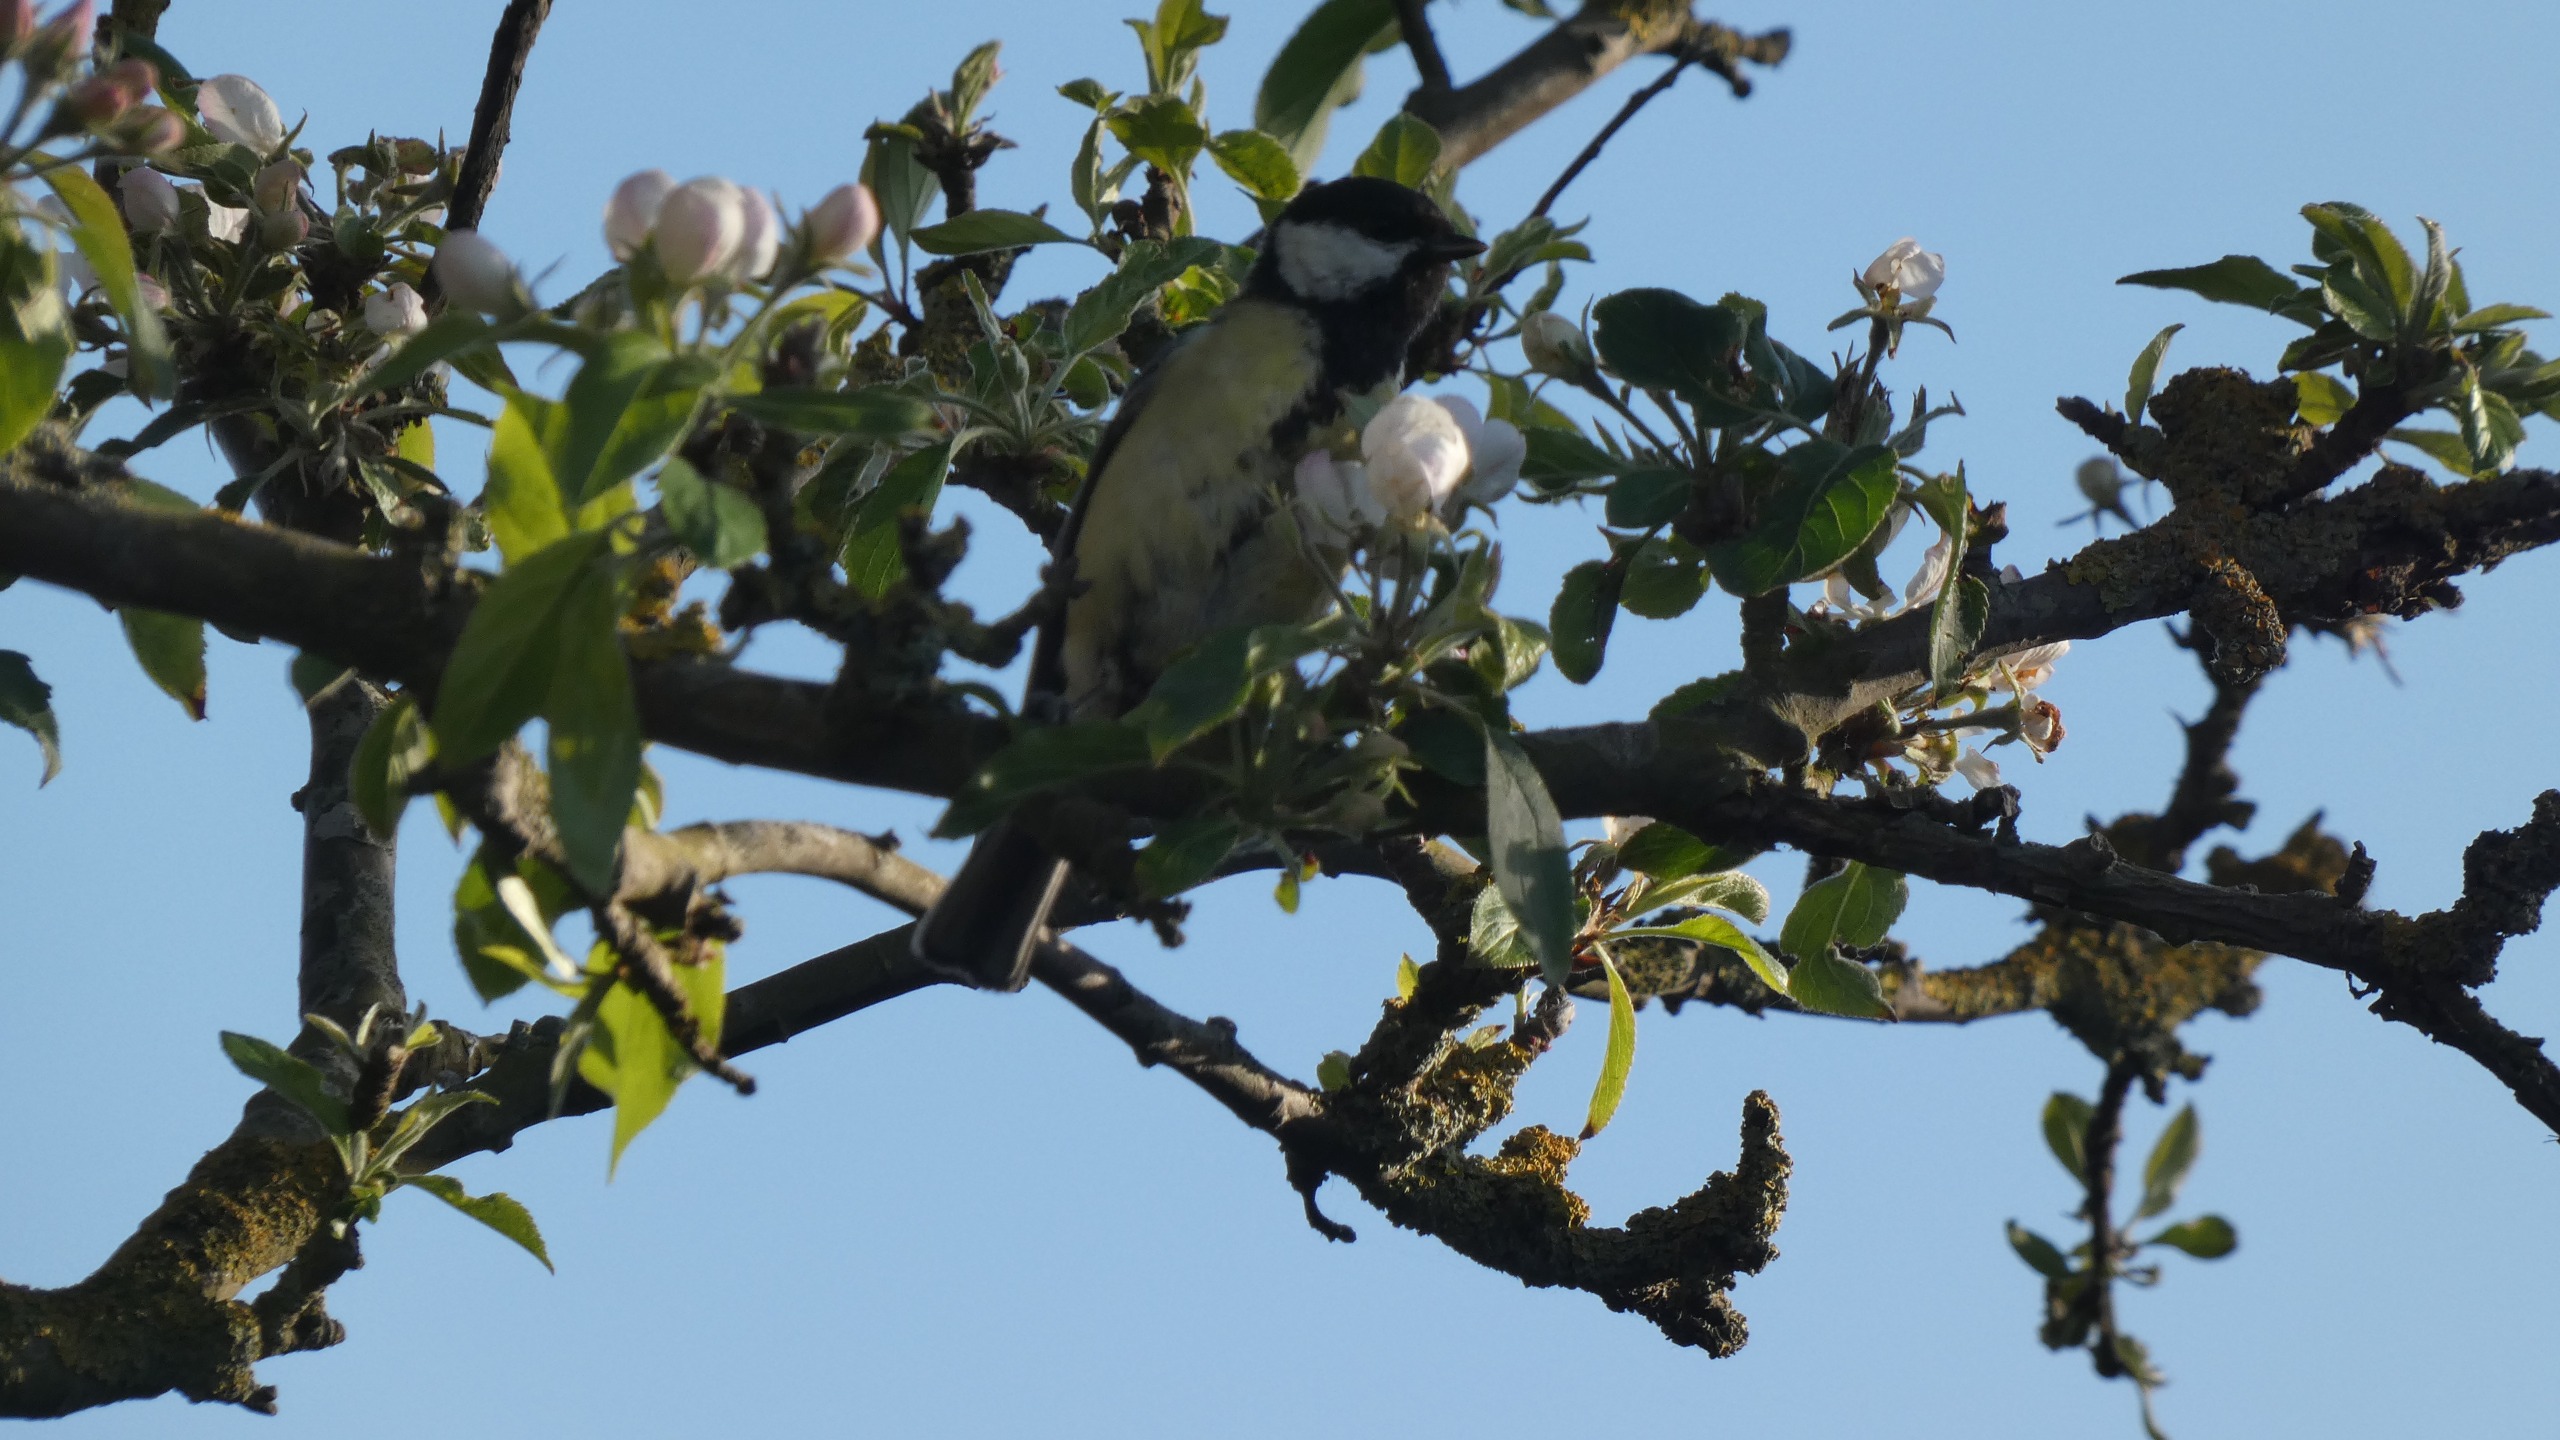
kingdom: Animalia
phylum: Chordata
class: Aves
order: Passeriformes
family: Paridae
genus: Parus
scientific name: Parus major
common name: Musvit
